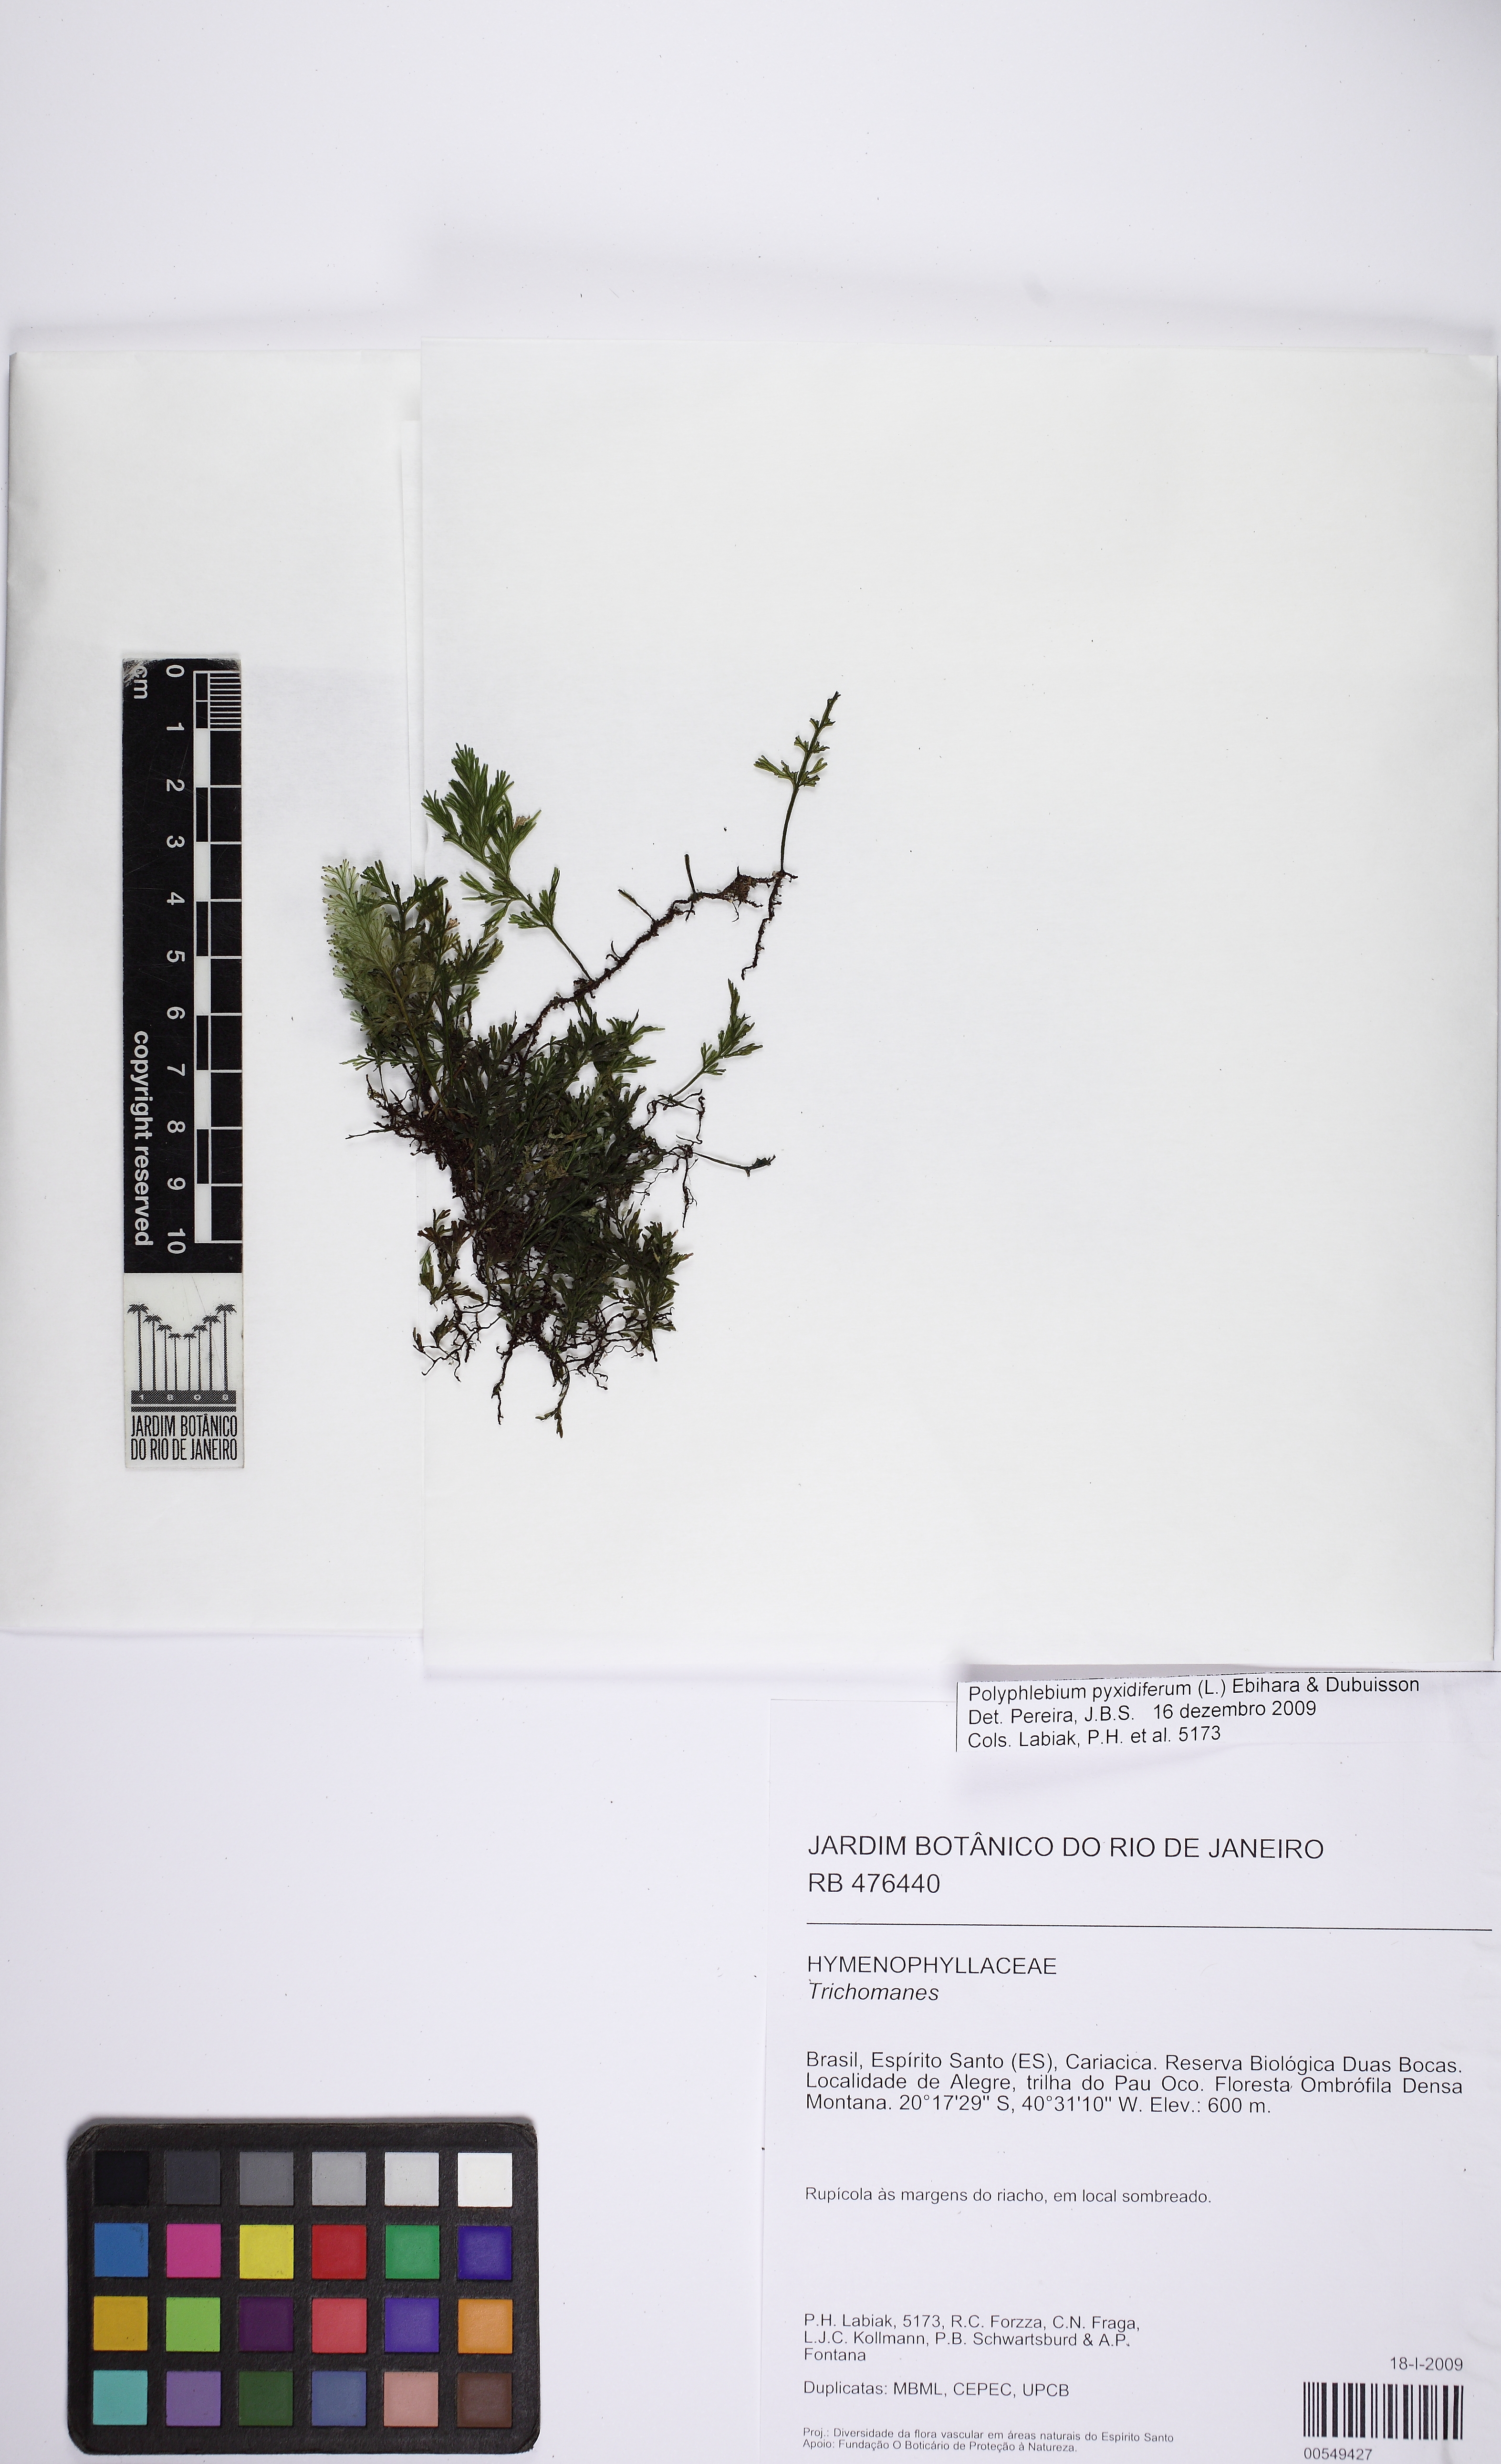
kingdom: Plantae
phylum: Tracheophyta
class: Polypodiopsida
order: Hymenophyllales
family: Hymenophyllaceae
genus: Polyphlebium
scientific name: Polyphlebium diaphanum
